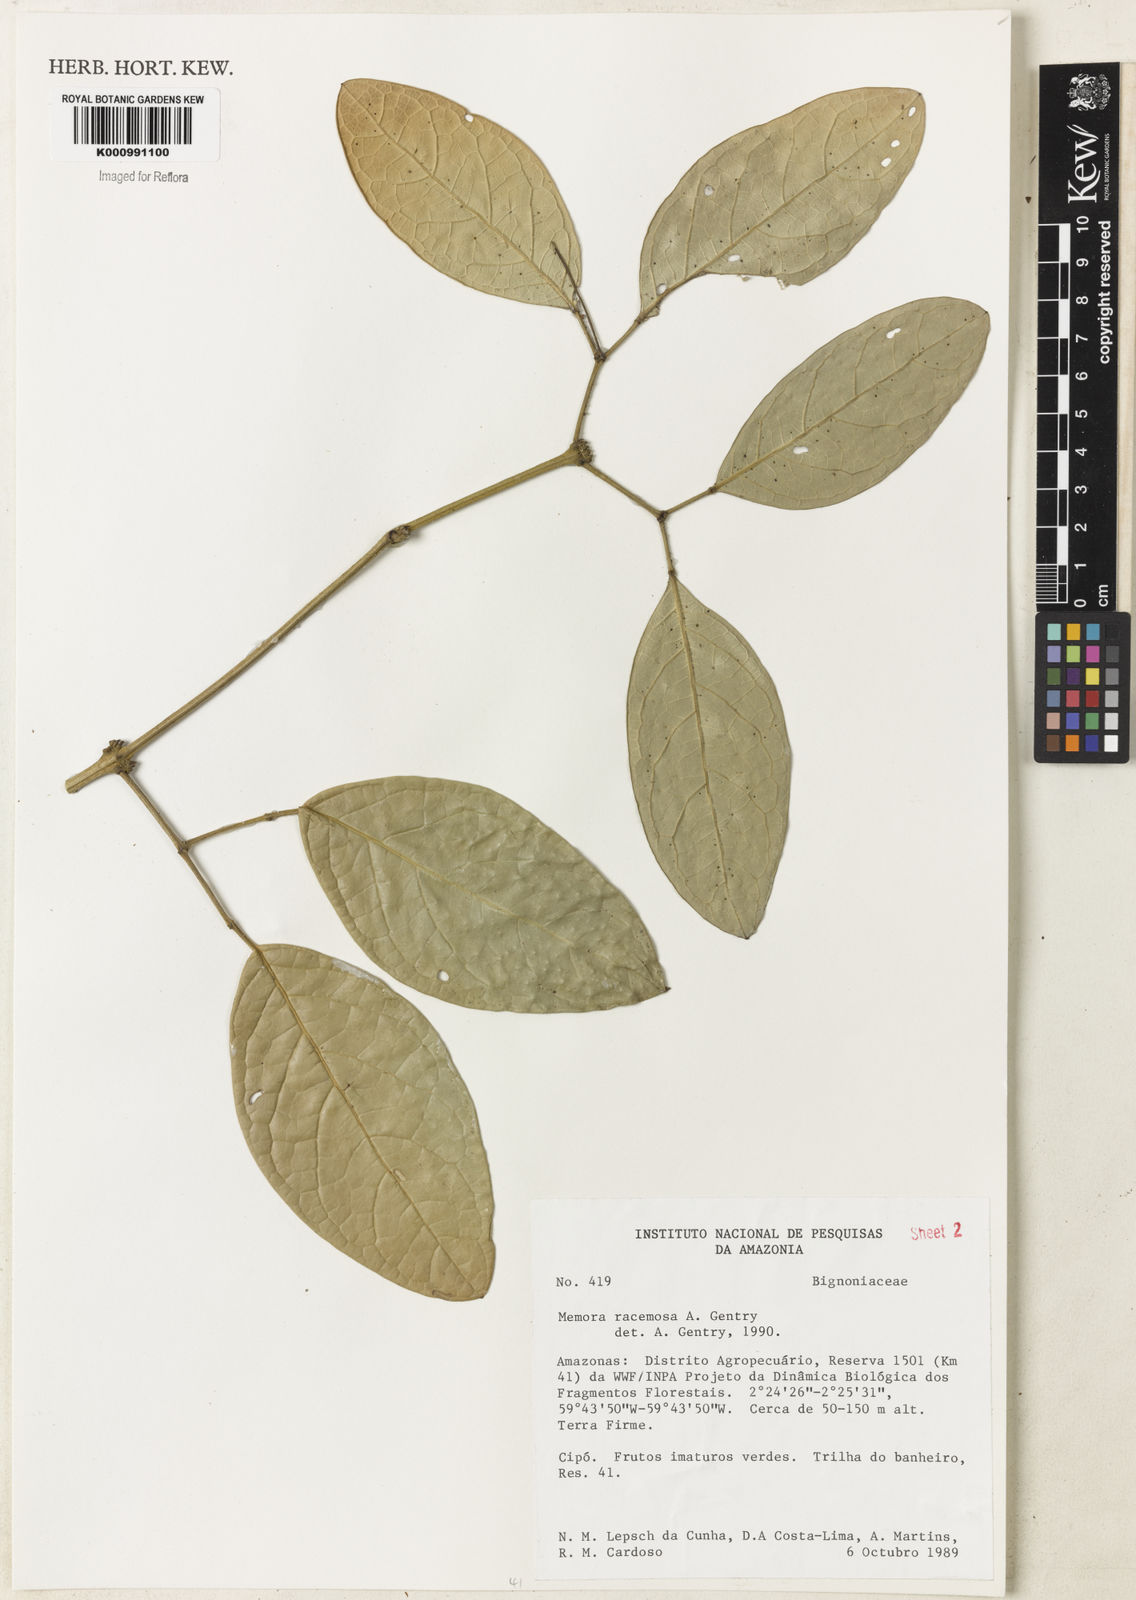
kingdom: Plantae
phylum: Tracheophyta
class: Magnoliopsida
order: Lamiales
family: Bignoniaceae
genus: Adenocalymma
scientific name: Adenocalymma racemosum
